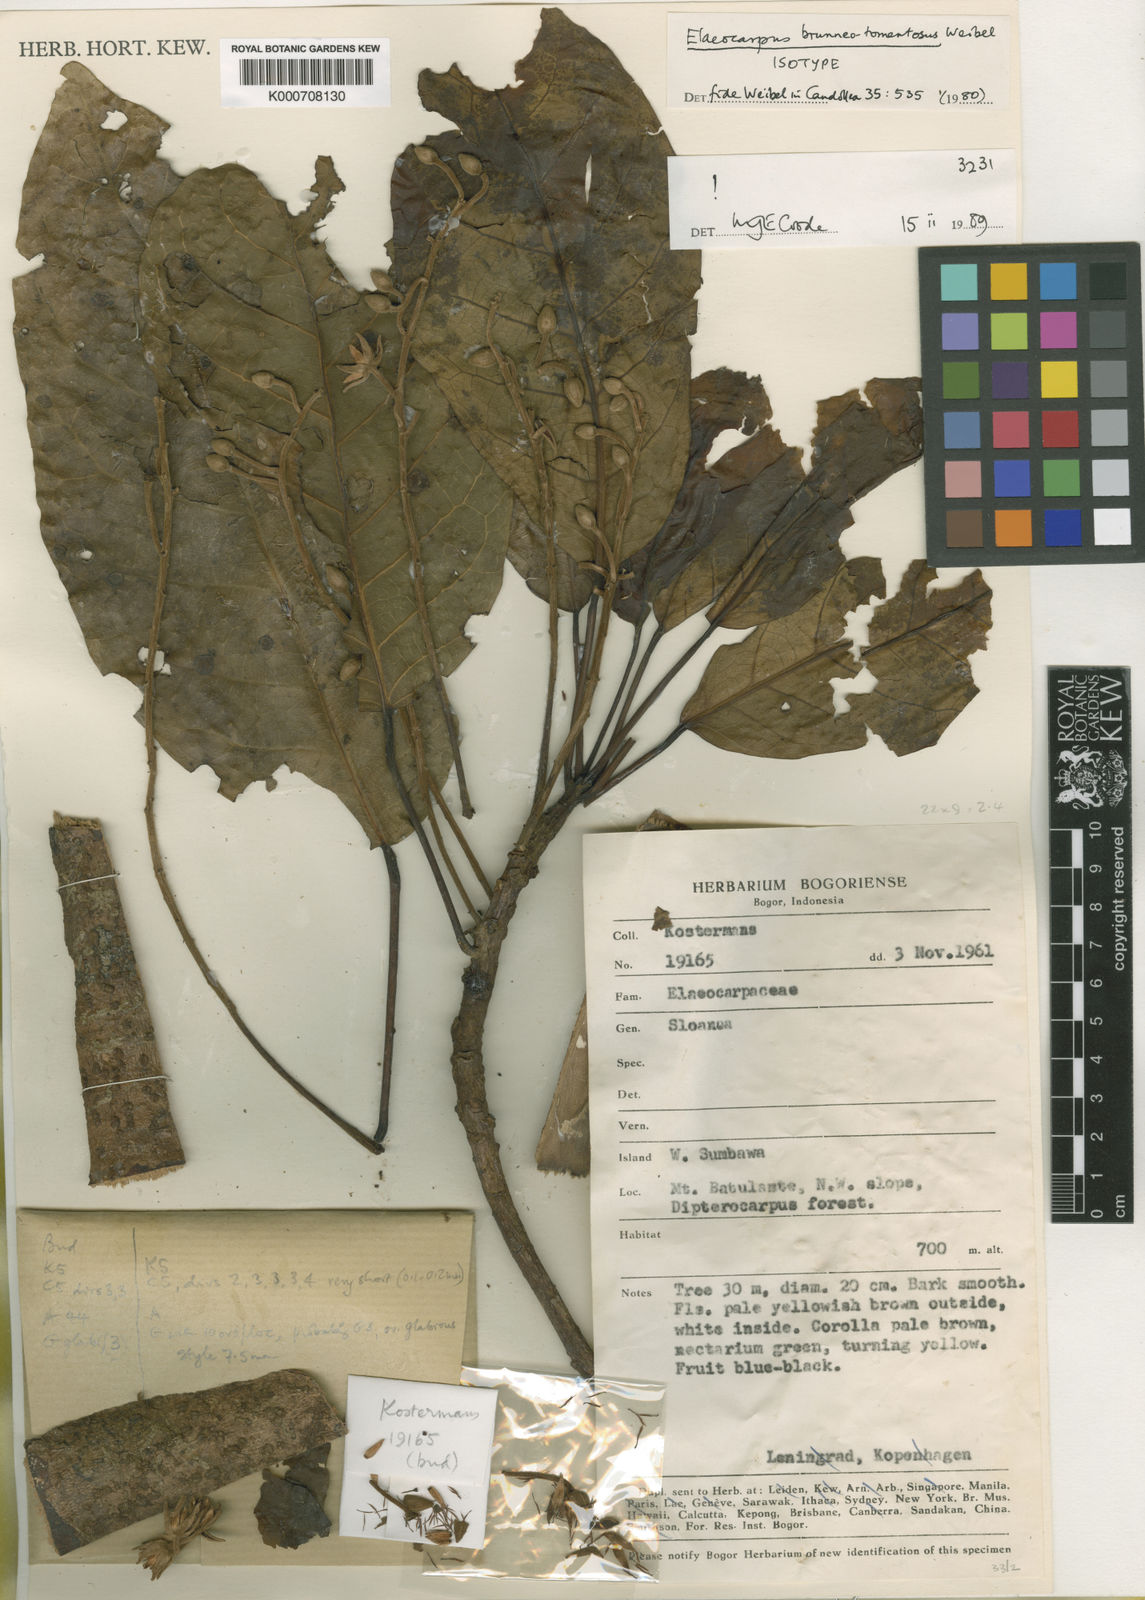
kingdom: Plantae
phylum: Tracheophyta
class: Magnoliopsida
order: Oxalidales
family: Elaeocarpaceae
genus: Elaeocarpus
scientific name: Elaeocarpus brunneotomentosus
